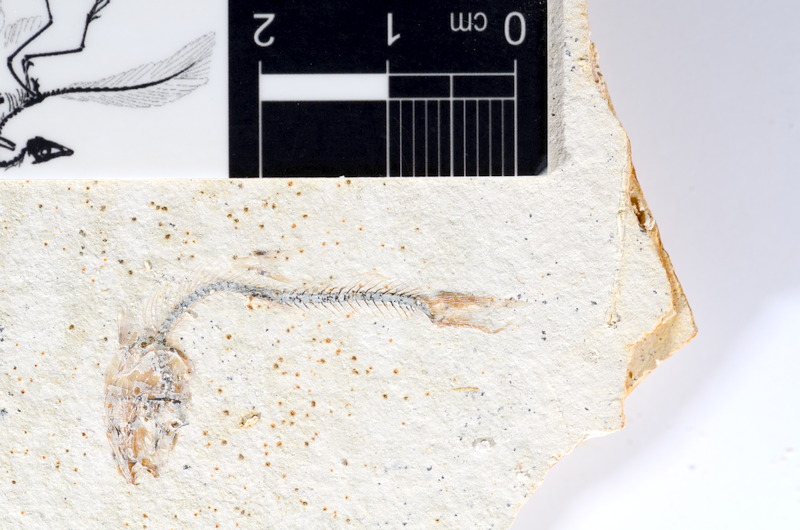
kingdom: Animalia
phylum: Chordata
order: Salmoniformes
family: Orthogonikleithridae
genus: Orthogonikleithrus
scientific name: Orthogonikleithrus hoelli
